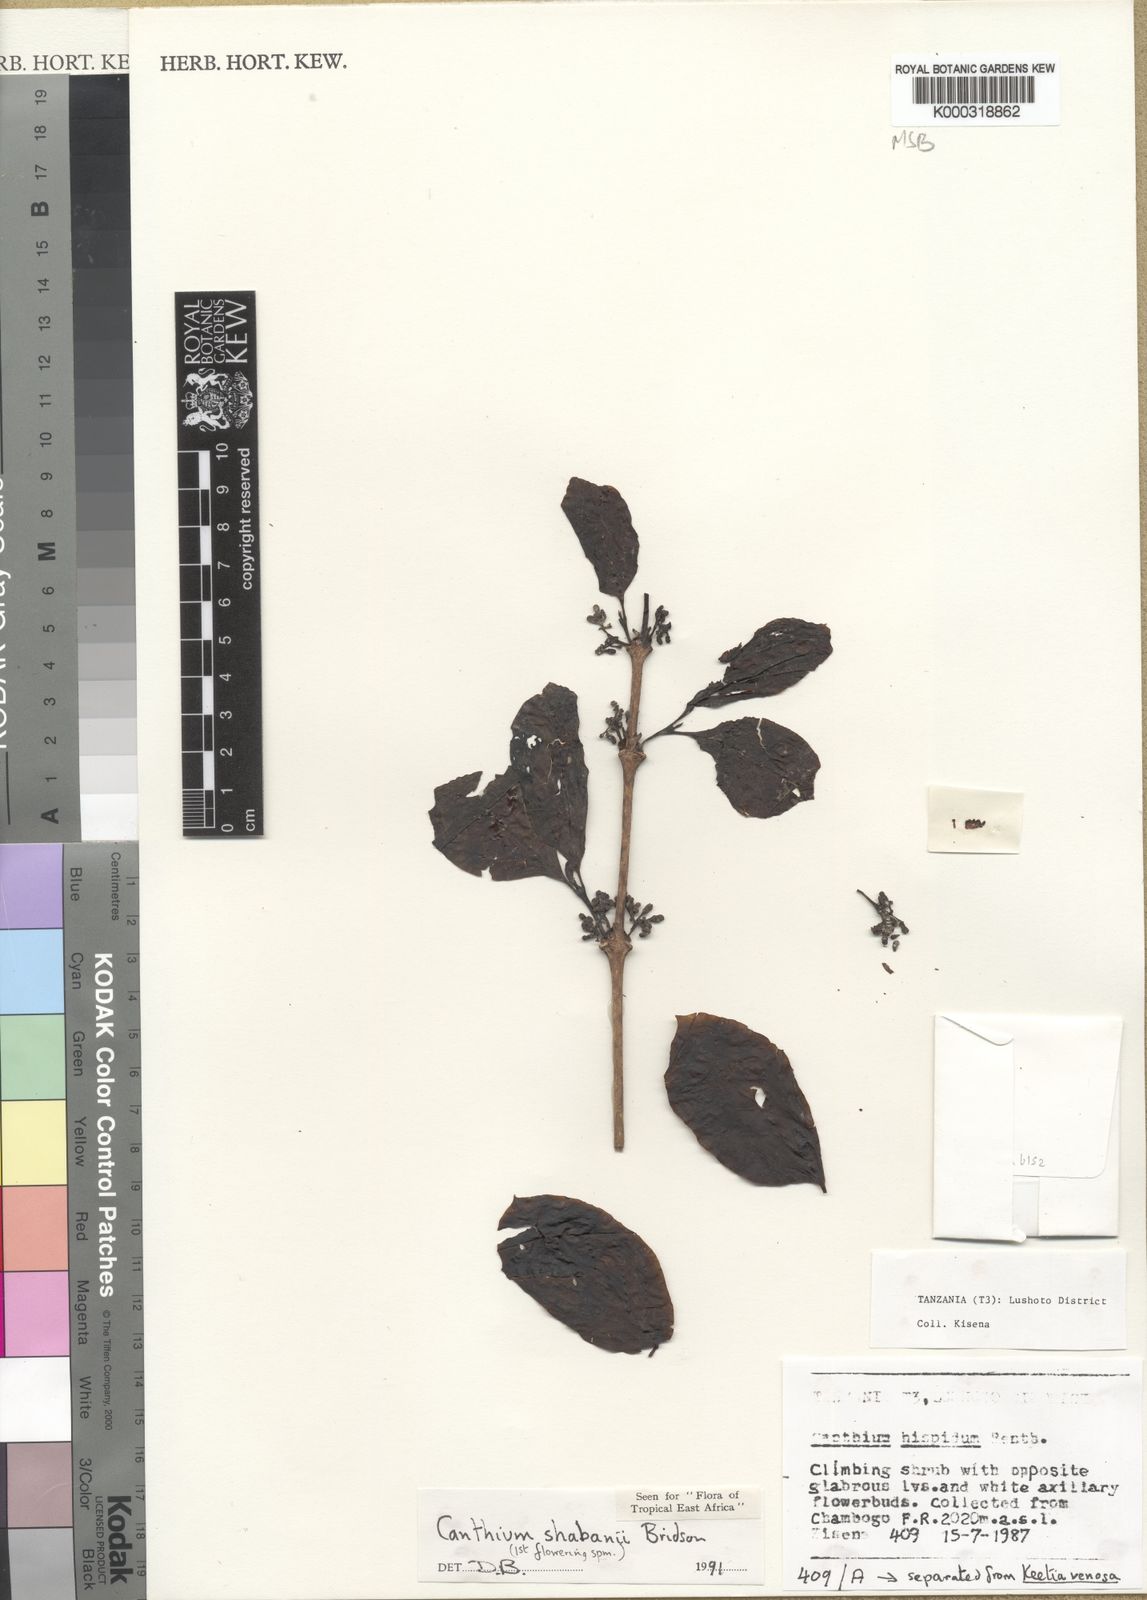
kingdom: Plantae
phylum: Tracheophyta
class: Magnoliopsida
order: Gentianales
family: Rubiaceae
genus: Afrocanthium
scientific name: Afrocanthium shabanii
